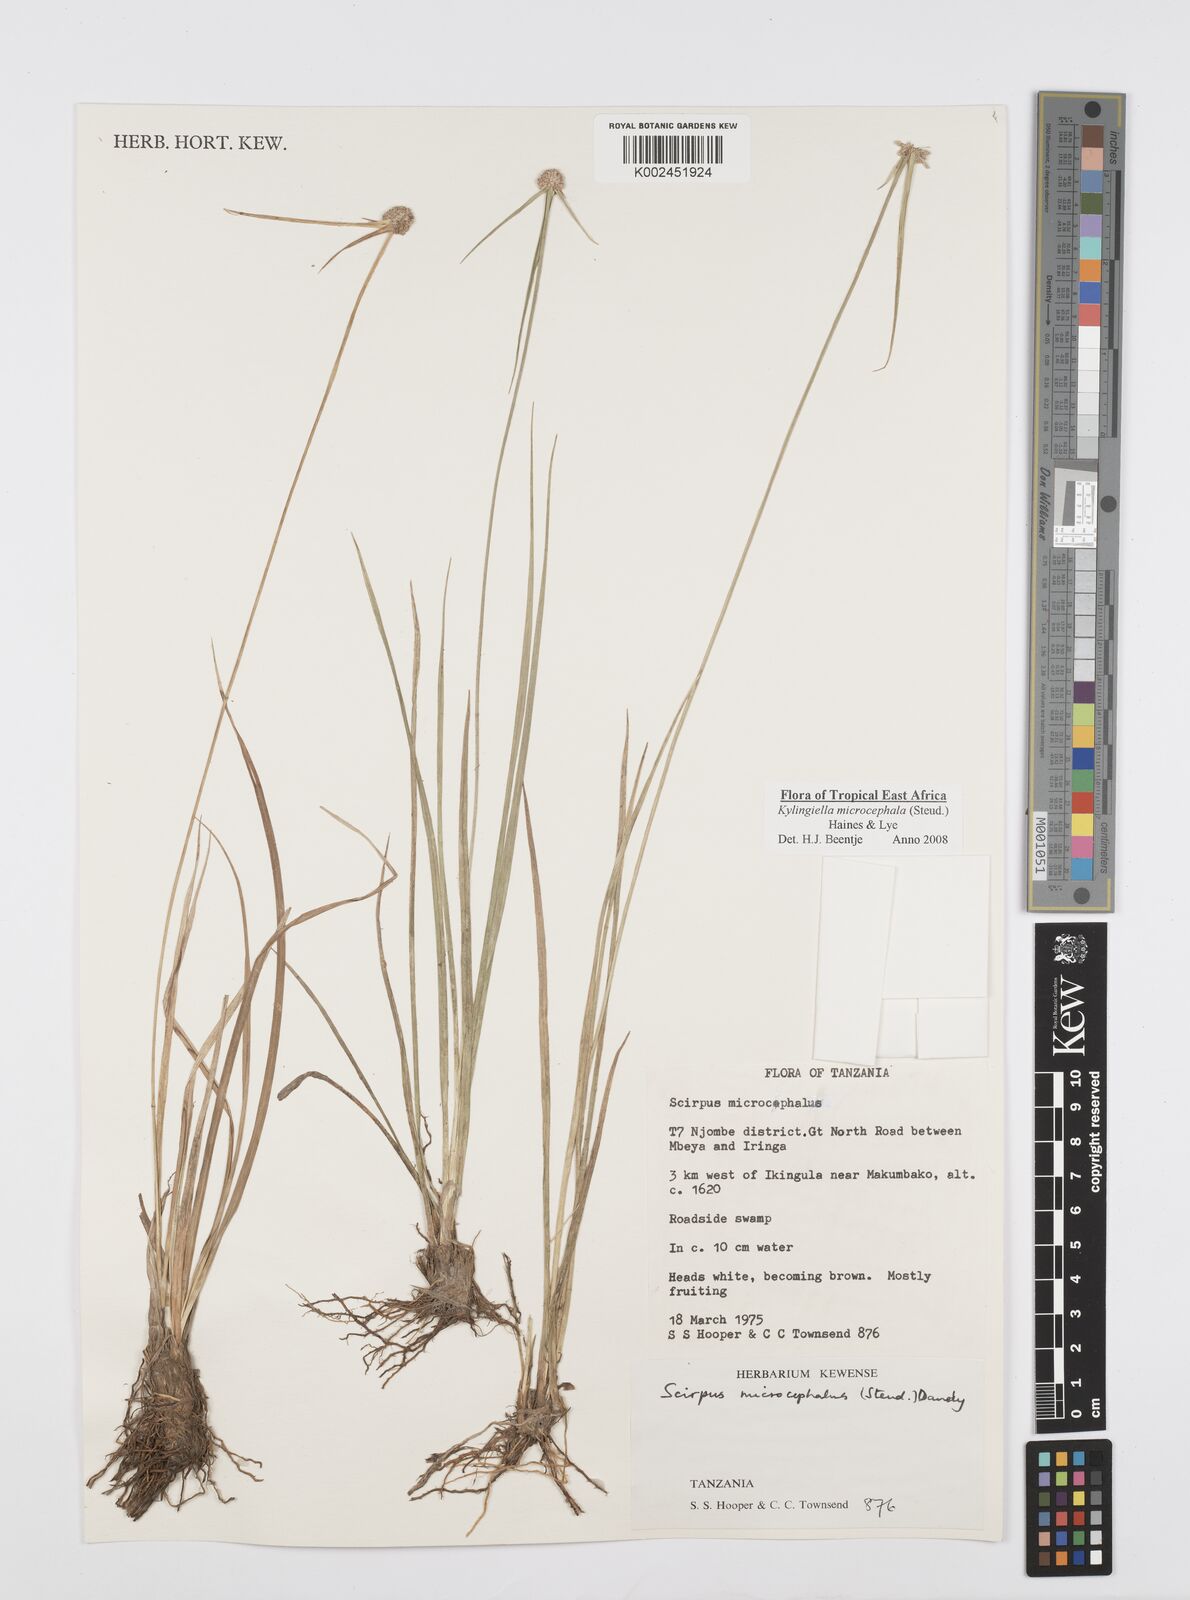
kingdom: Plantae
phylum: Tracheophyta
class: Liliopsida
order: Poales
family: Cyperaceae
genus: Cyperus
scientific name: Cyperus microcephalus
